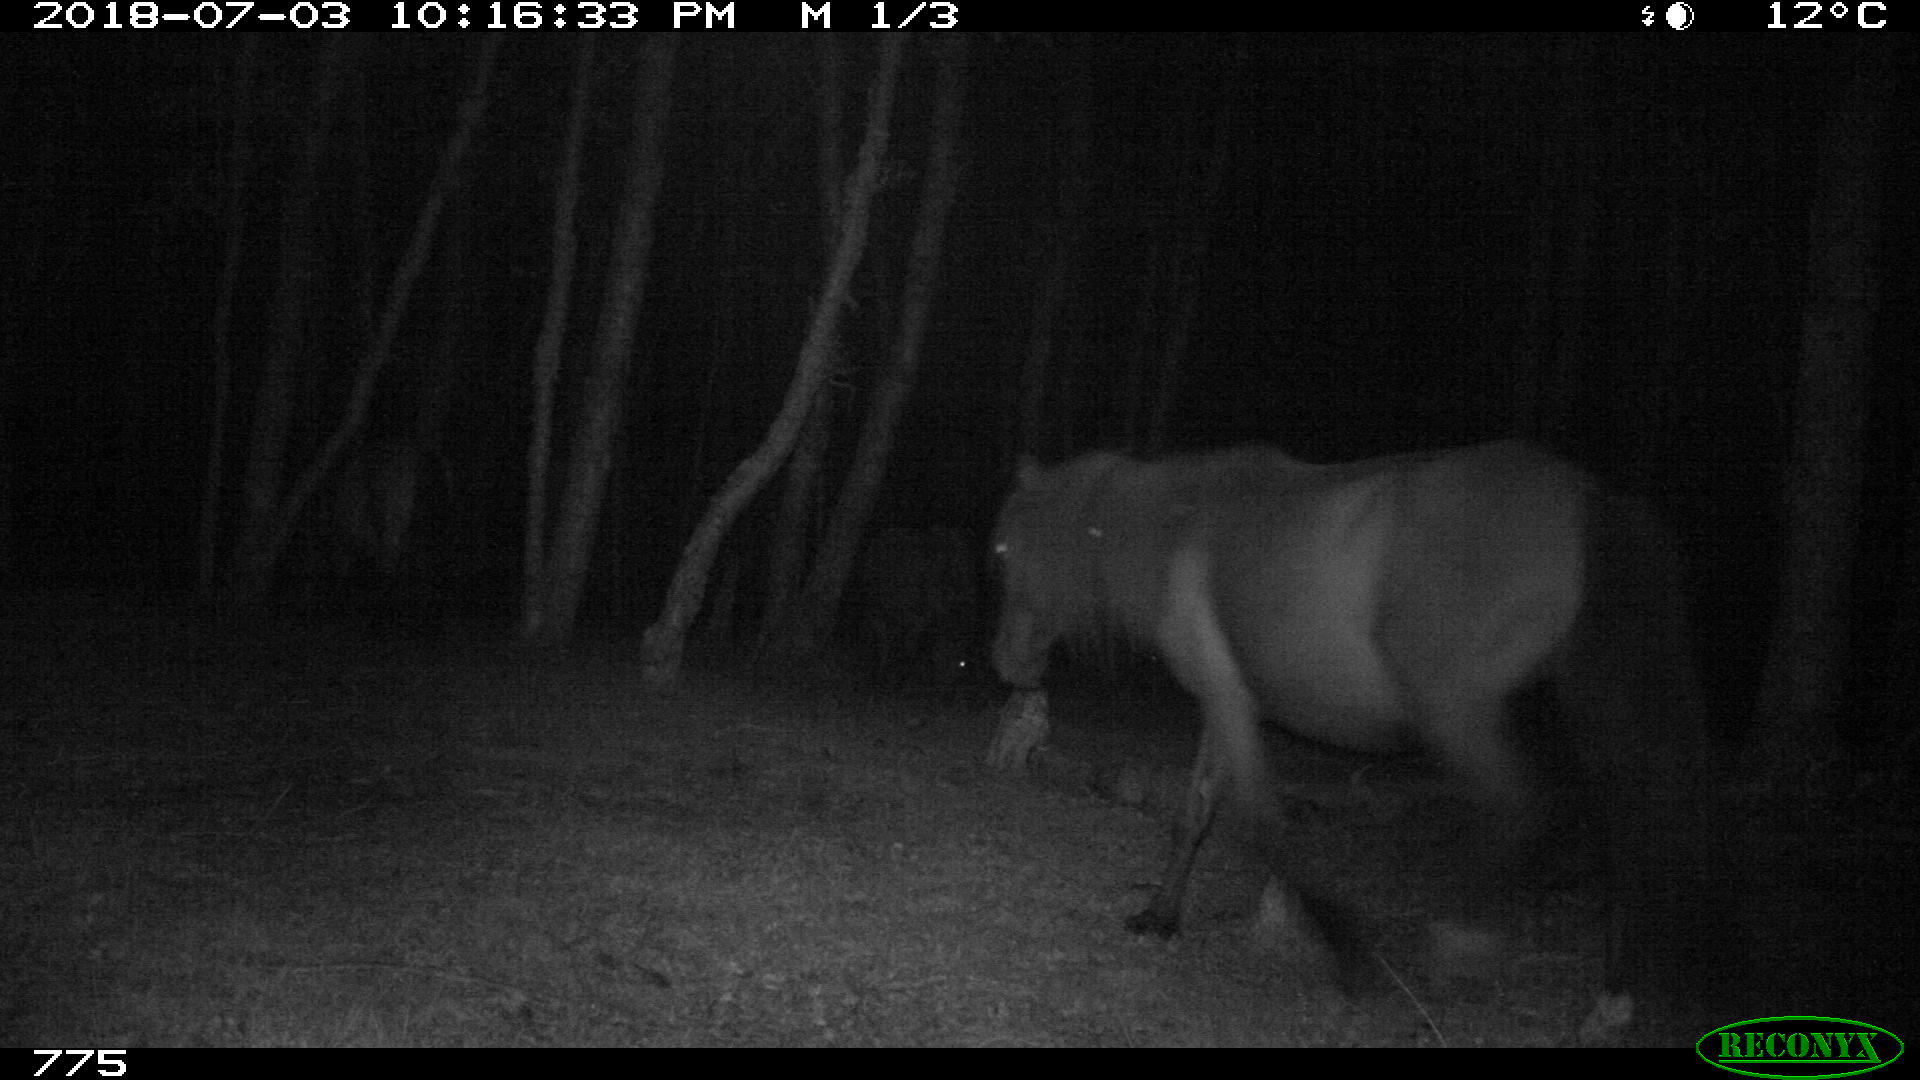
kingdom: Animalia
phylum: Chordata
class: Mammalia
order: Perissodactyla
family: Equidae
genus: Equus
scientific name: Equus caballus
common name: Horse
